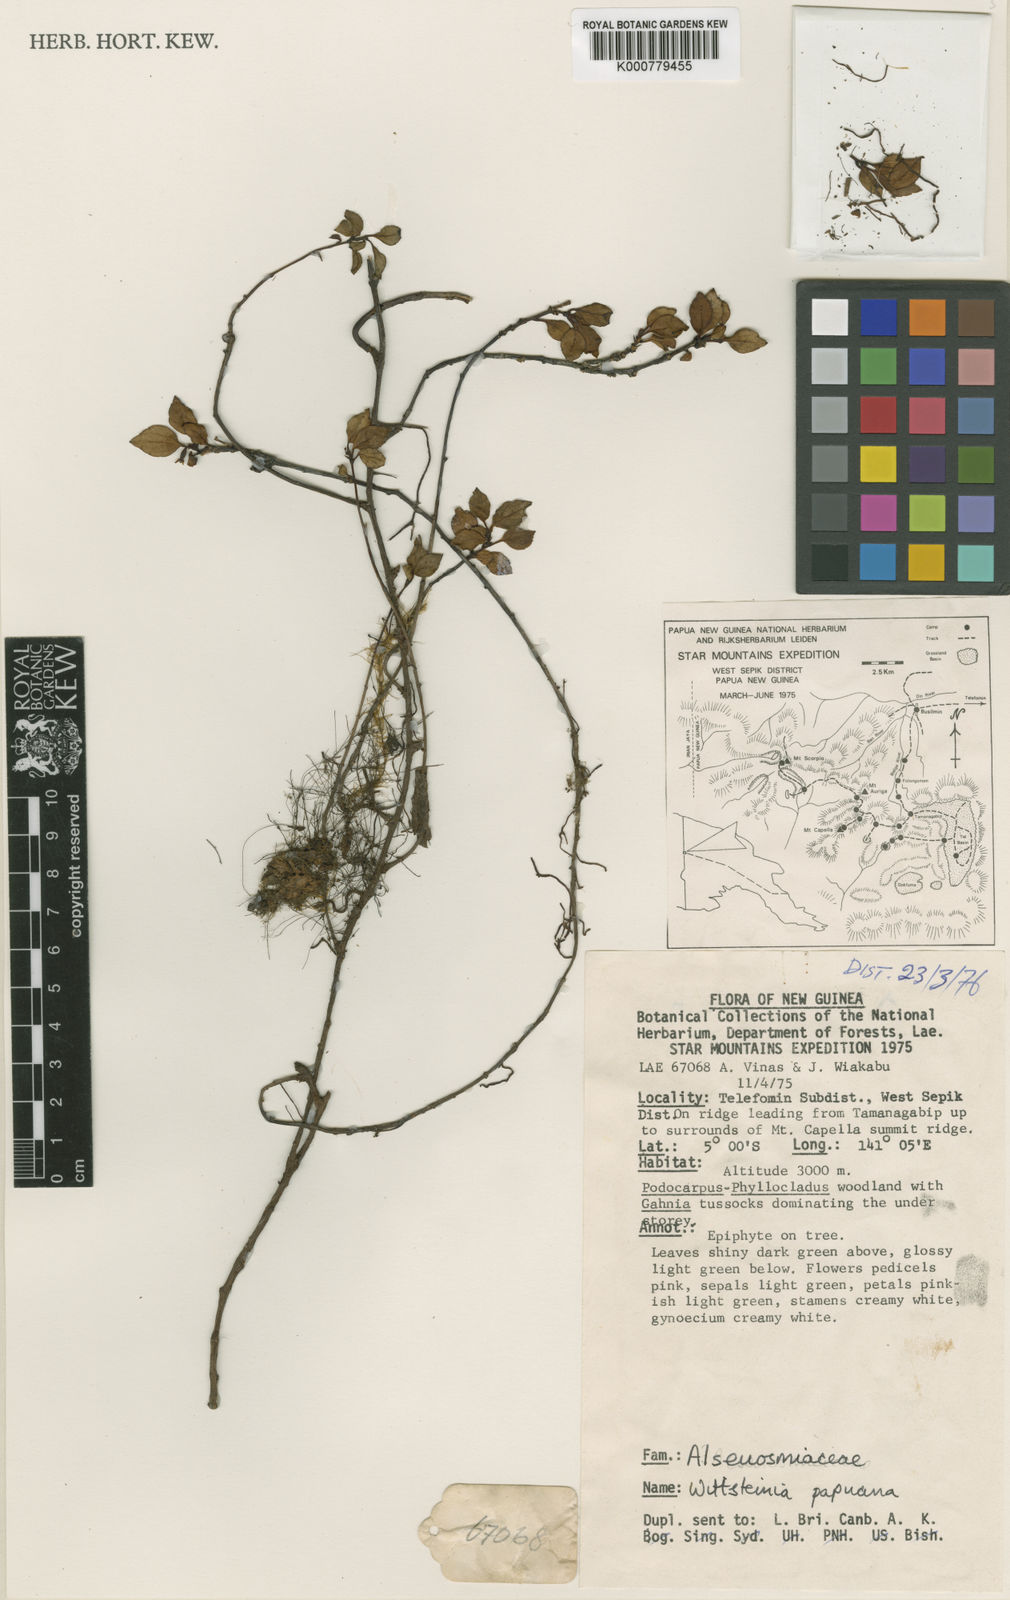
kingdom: Plantae
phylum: Tracheophyta
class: Magnoliopsida
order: Asterales
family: Alseuosmiaceae
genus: Wittsteinia
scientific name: Wittsteinia papuana
